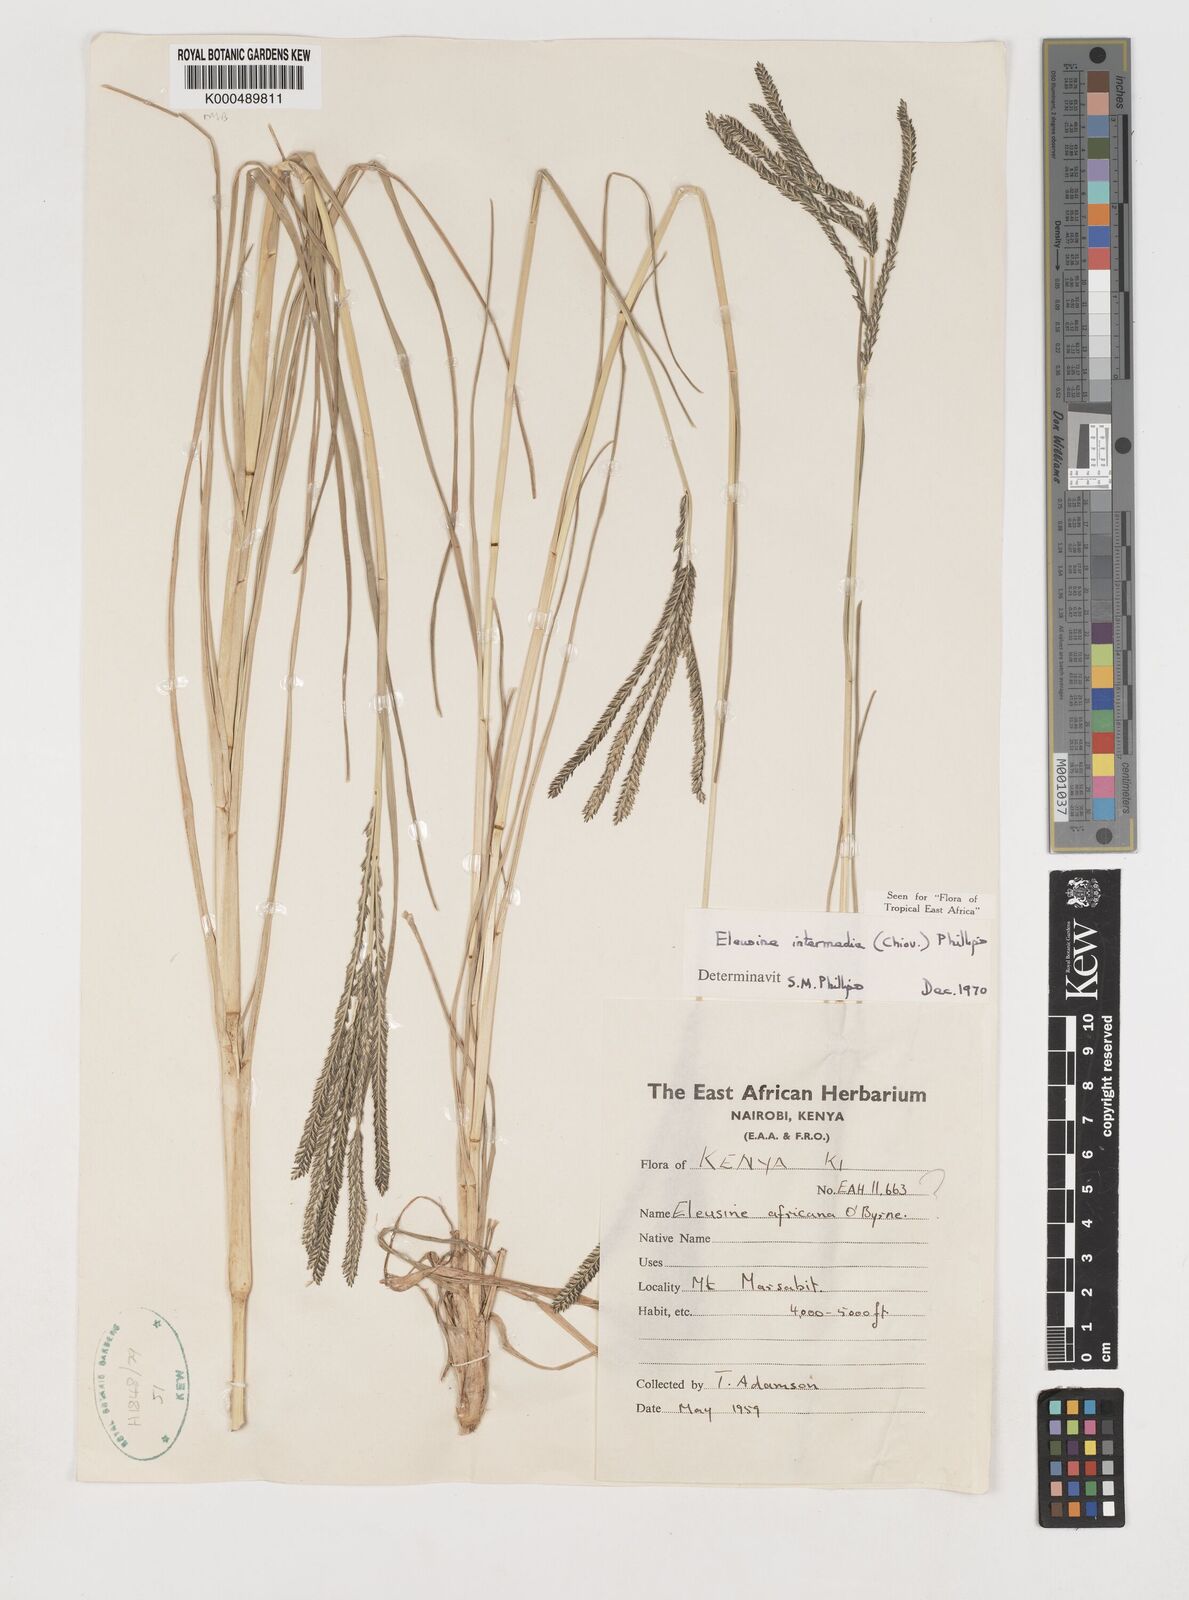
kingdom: Plantae
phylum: Tracheophyta
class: Liliopsida
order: Poales
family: Poaceae
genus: Eleusine
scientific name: Eleusine intermedia
